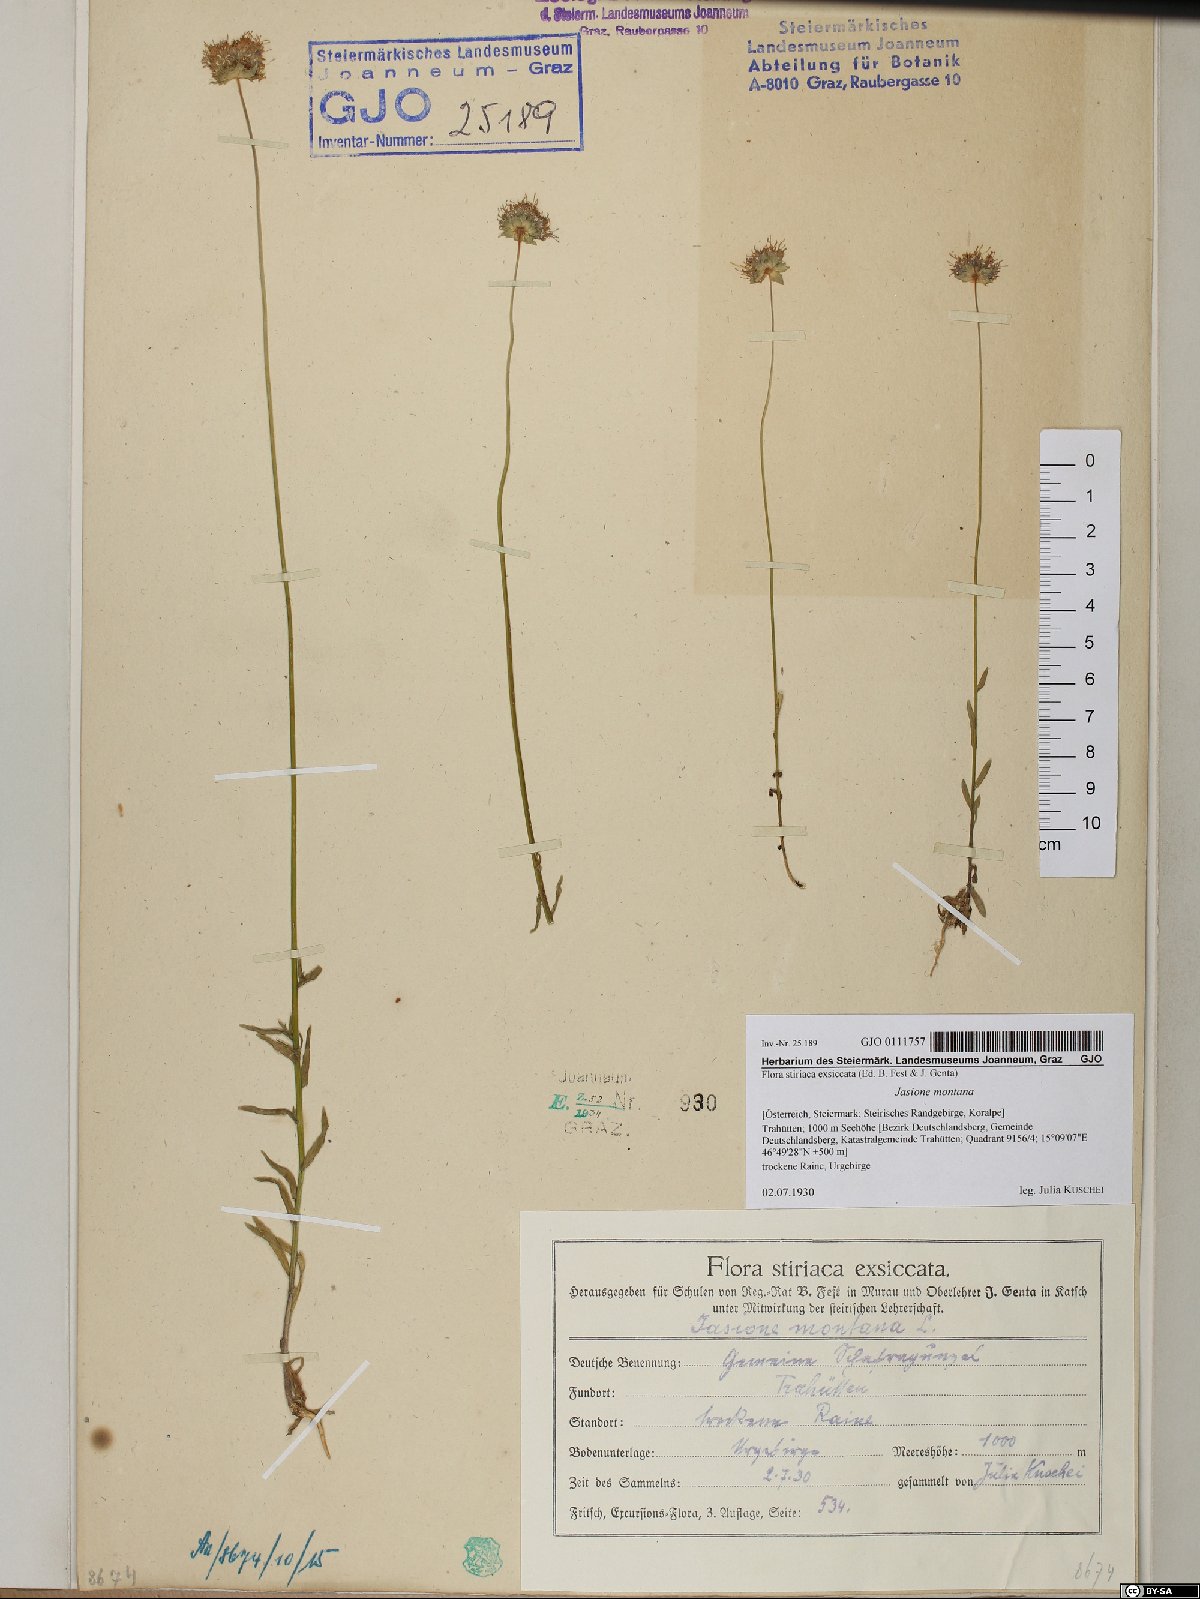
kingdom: Plantae
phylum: Tracheophyta
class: Magnoliopsida
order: Asterales
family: Campanulaceae
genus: Jasione
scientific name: Jasione montana
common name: Sheep's-bit
